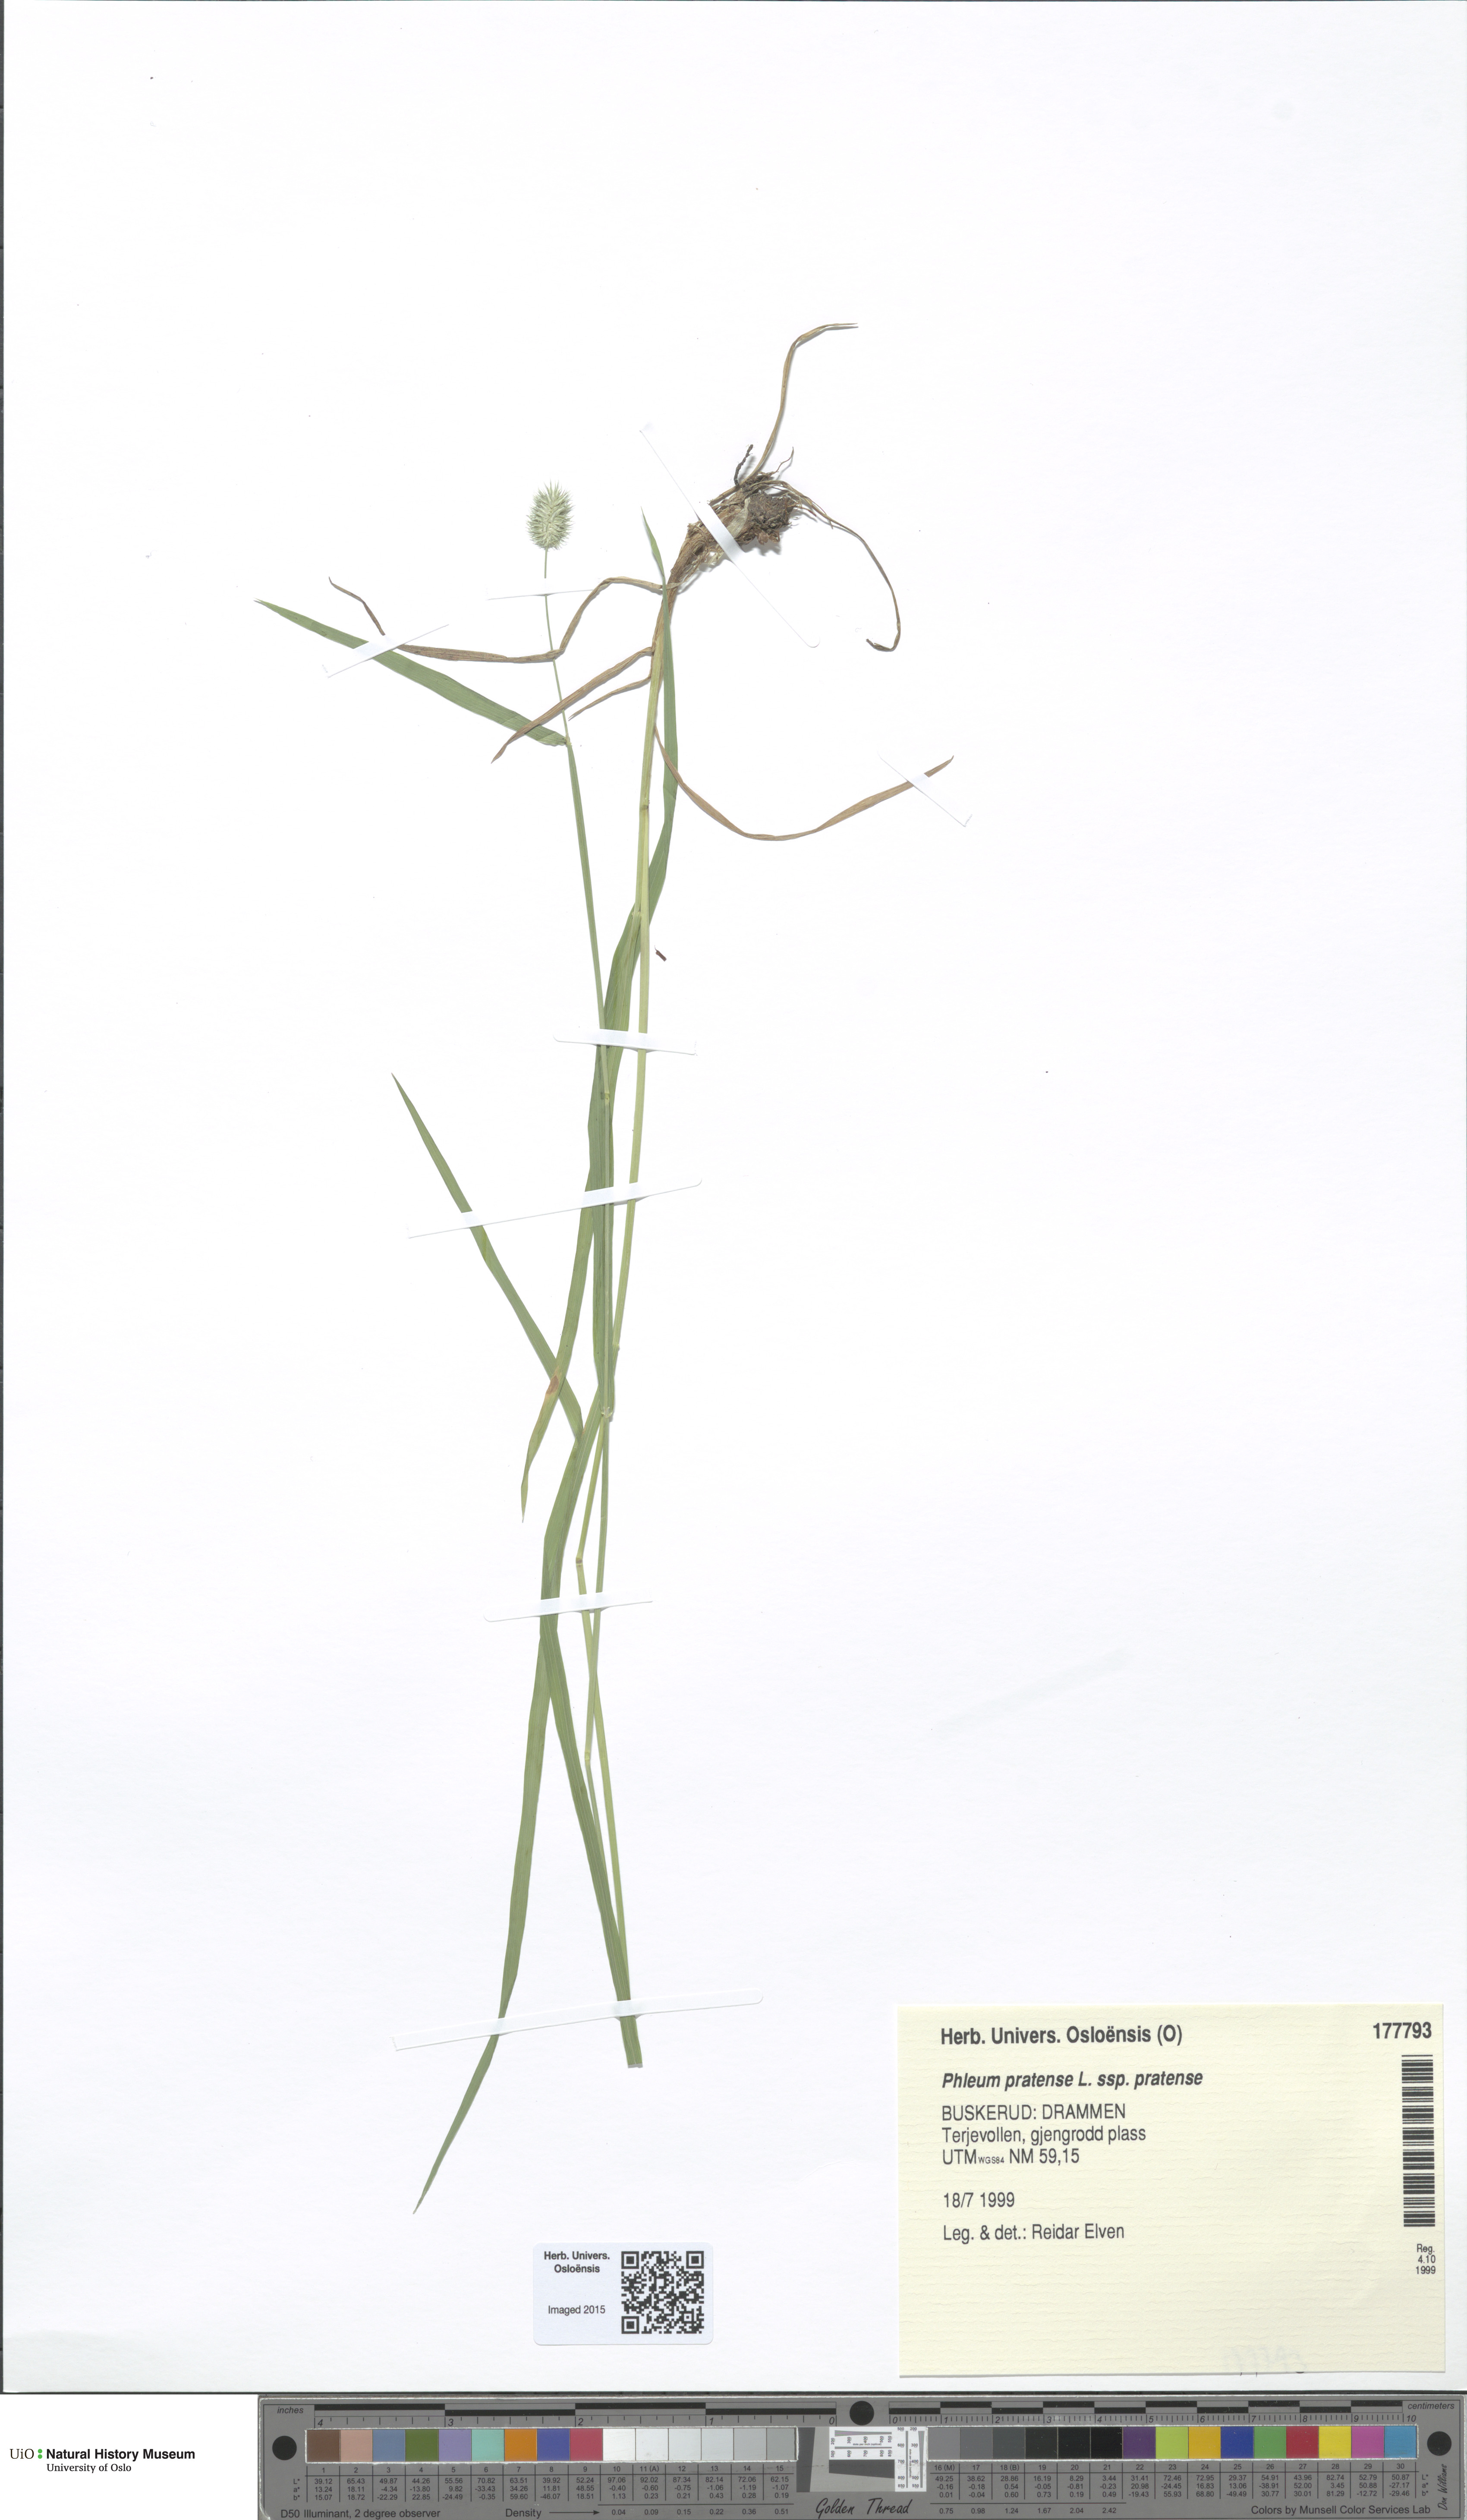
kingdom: Plantae
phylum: Tracheophyta
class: Liliopsida
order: Poales
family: Poaceae
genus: Phleum
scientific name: Phleum pratense
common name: Timothy grass
